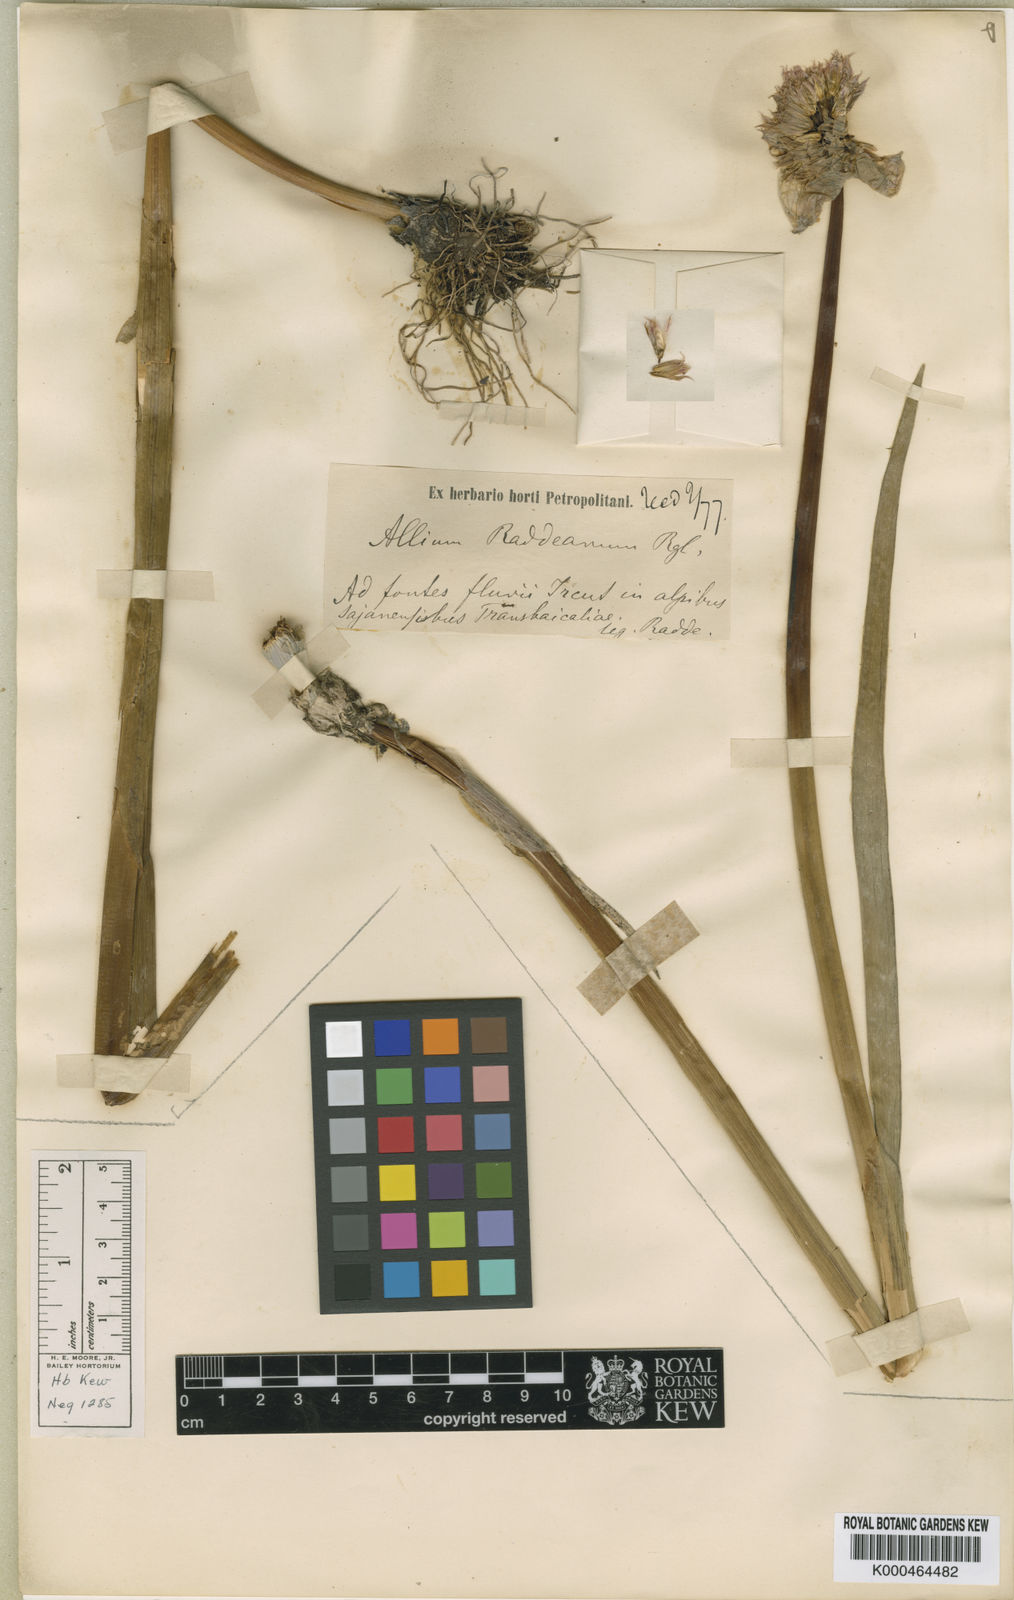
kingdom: Plantae
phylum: Tracheophyta
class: Liliopsida
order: Asparagales
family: Amaryllidaceae
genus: Allium
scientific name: Allium schoenoprasum
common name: Chives
